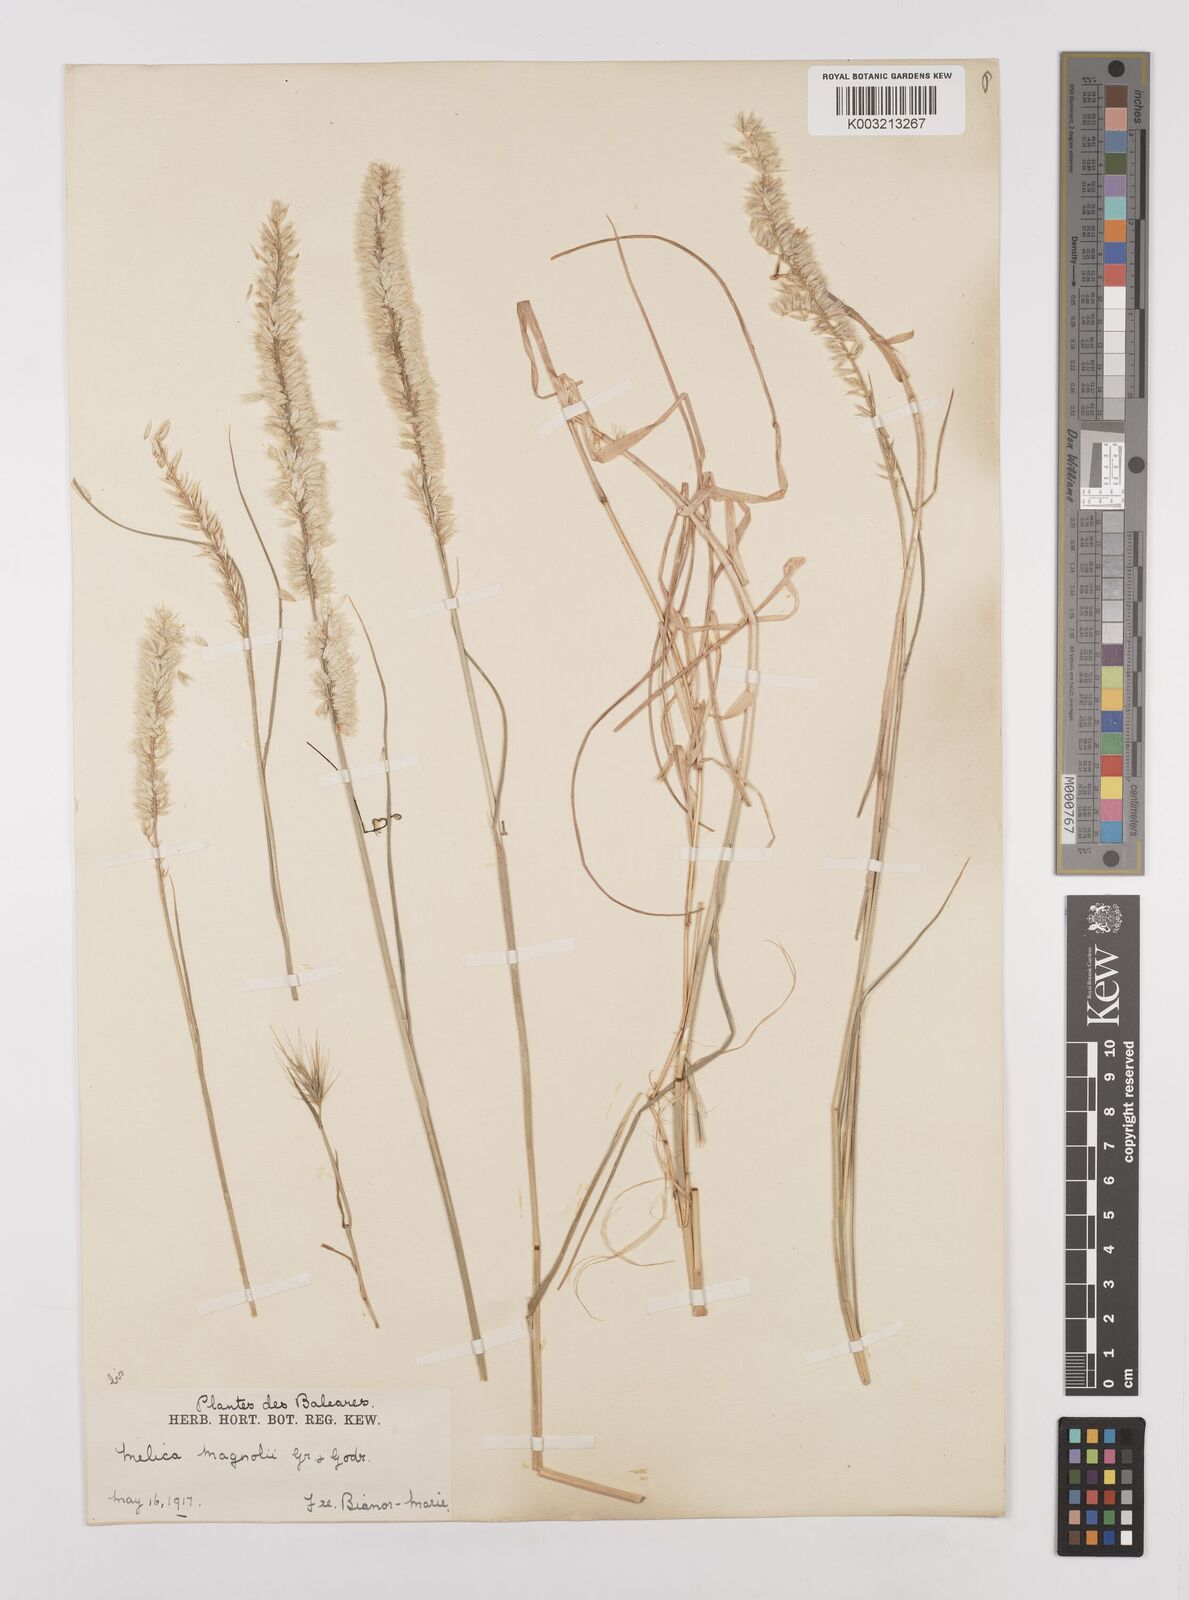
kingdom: Plantae
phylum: Tracheophyta
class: Liliopsida
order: Poales
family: Poaceae
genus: Melica
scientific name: Melica ciliata
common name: Hairy melicgrass
